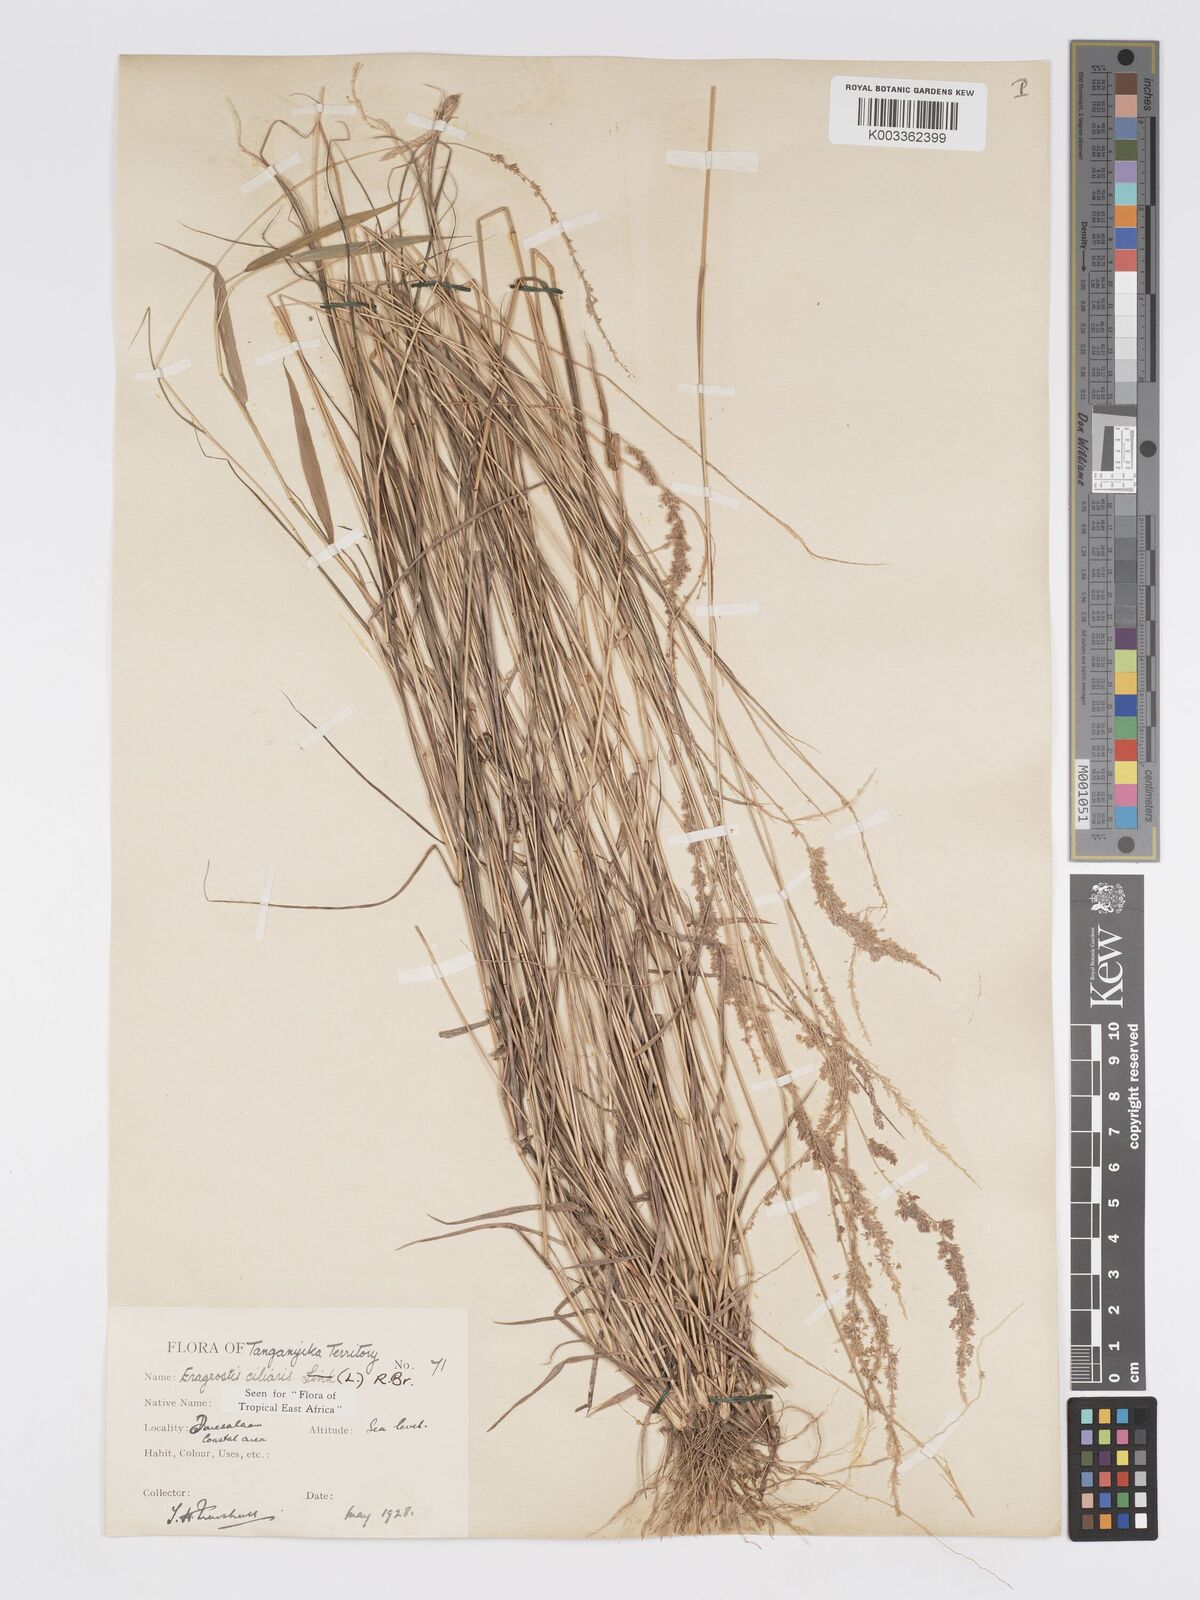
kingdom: Plantae
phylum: Tracheophyta
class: Liliopsida
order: Poales
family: Poaceae
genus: Eragrostis
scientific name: Eragrostis ciliaris
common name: Gophertail lovegrass
